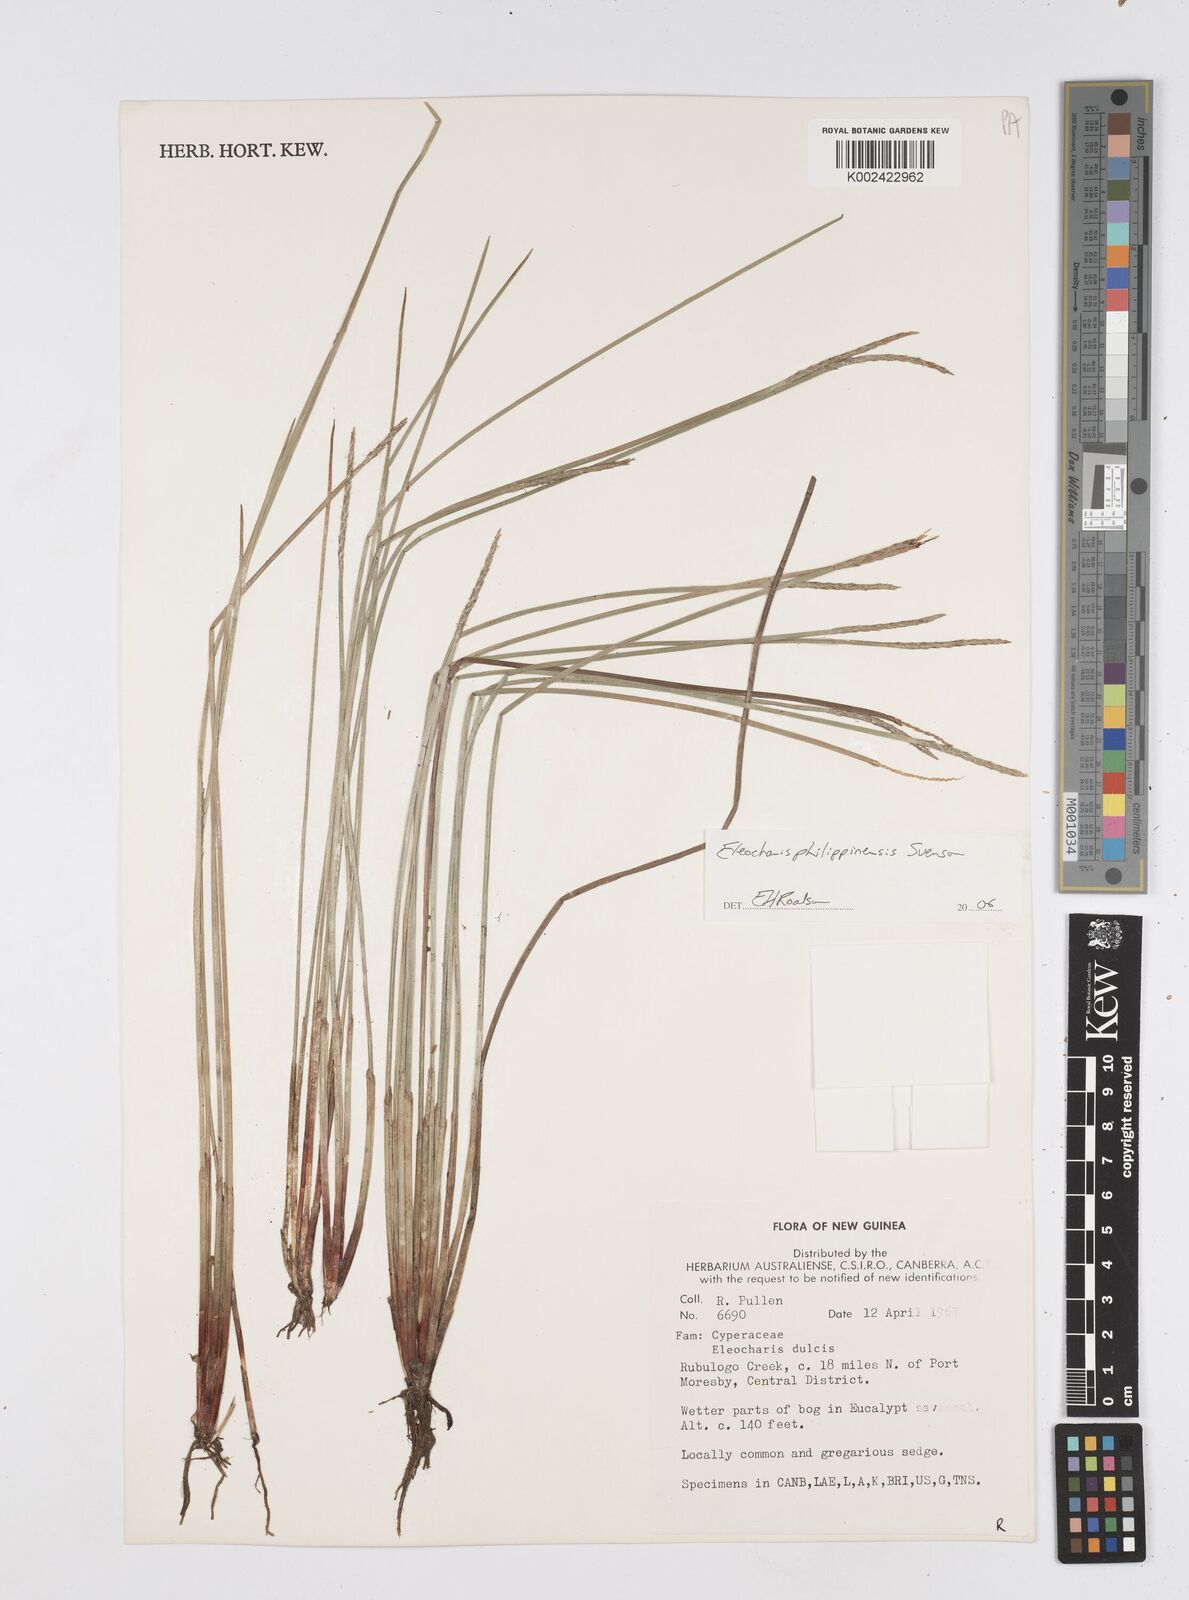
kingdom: Plantae
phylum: Tracheophyta
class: Liliopsida
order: Poales
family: Cyperaceae
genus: Eleocharis
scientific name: Eleocharis philippinensis
